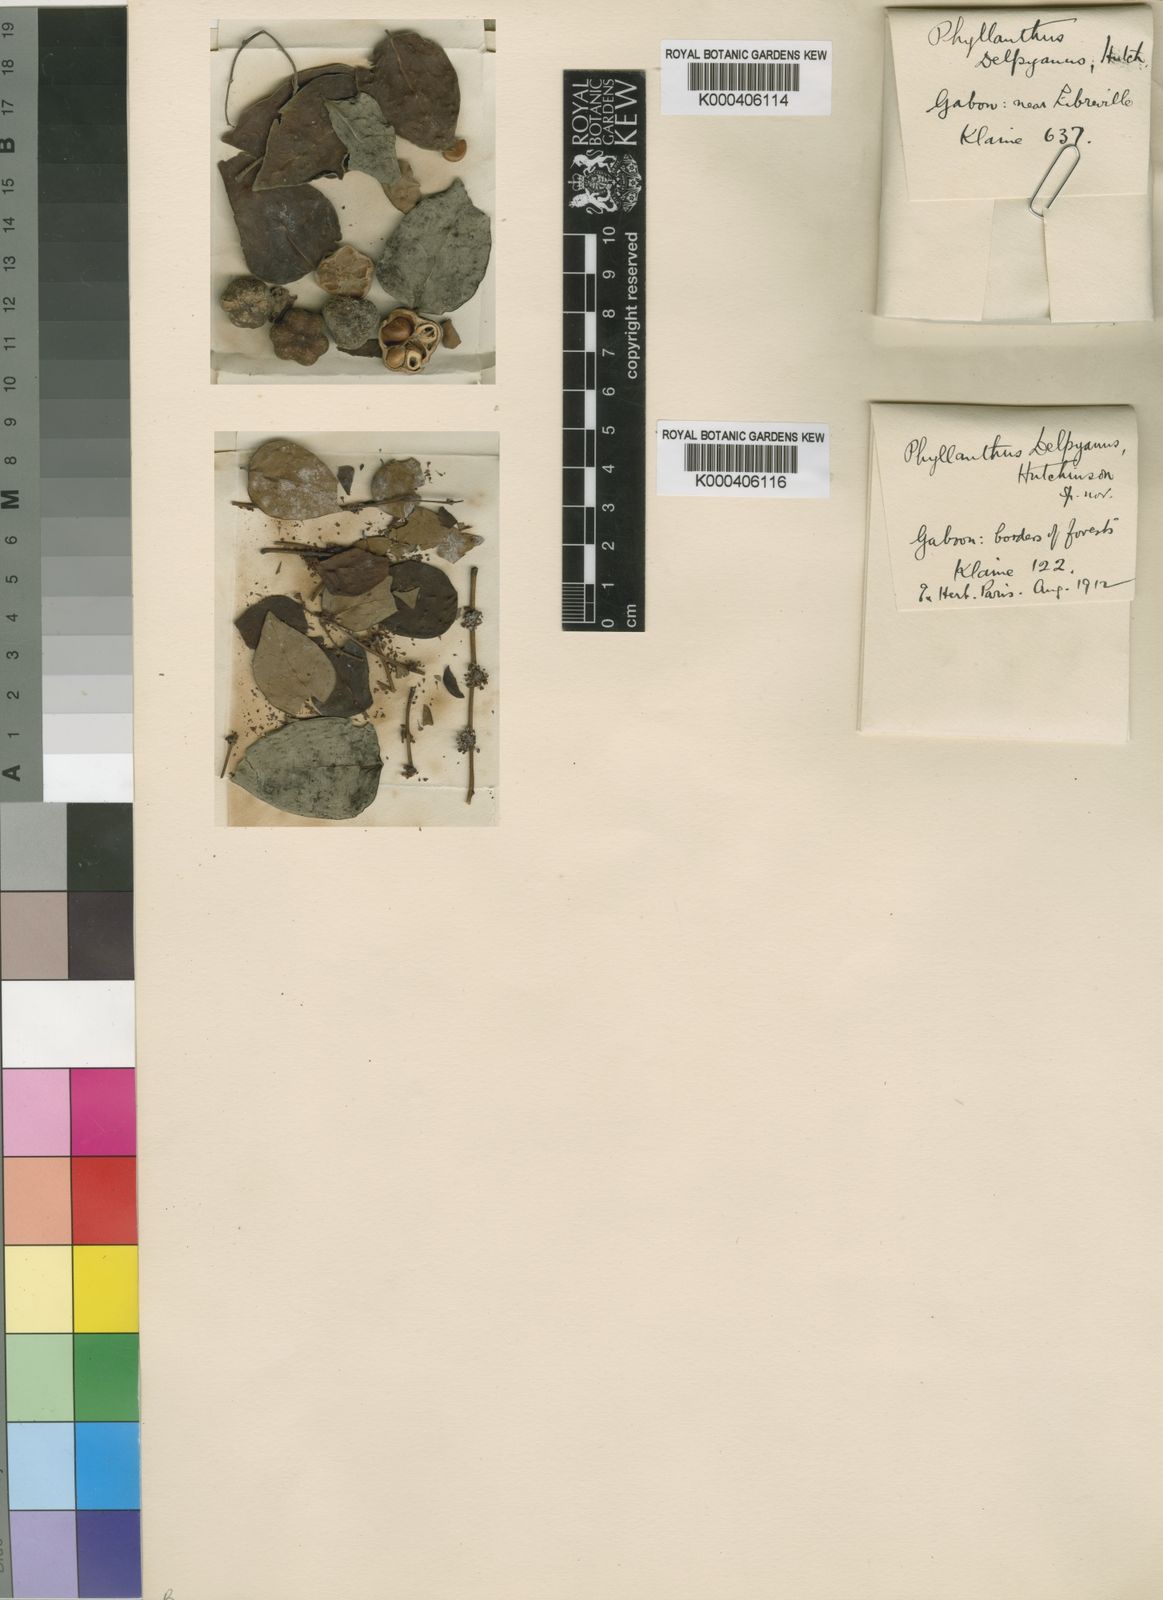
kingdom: Plantae
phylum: Tracheophyta
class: Magnoliopsida
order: Malpighiales
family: Phyllanthaceae
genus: Phyllanthus
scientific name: Phyllanthus
